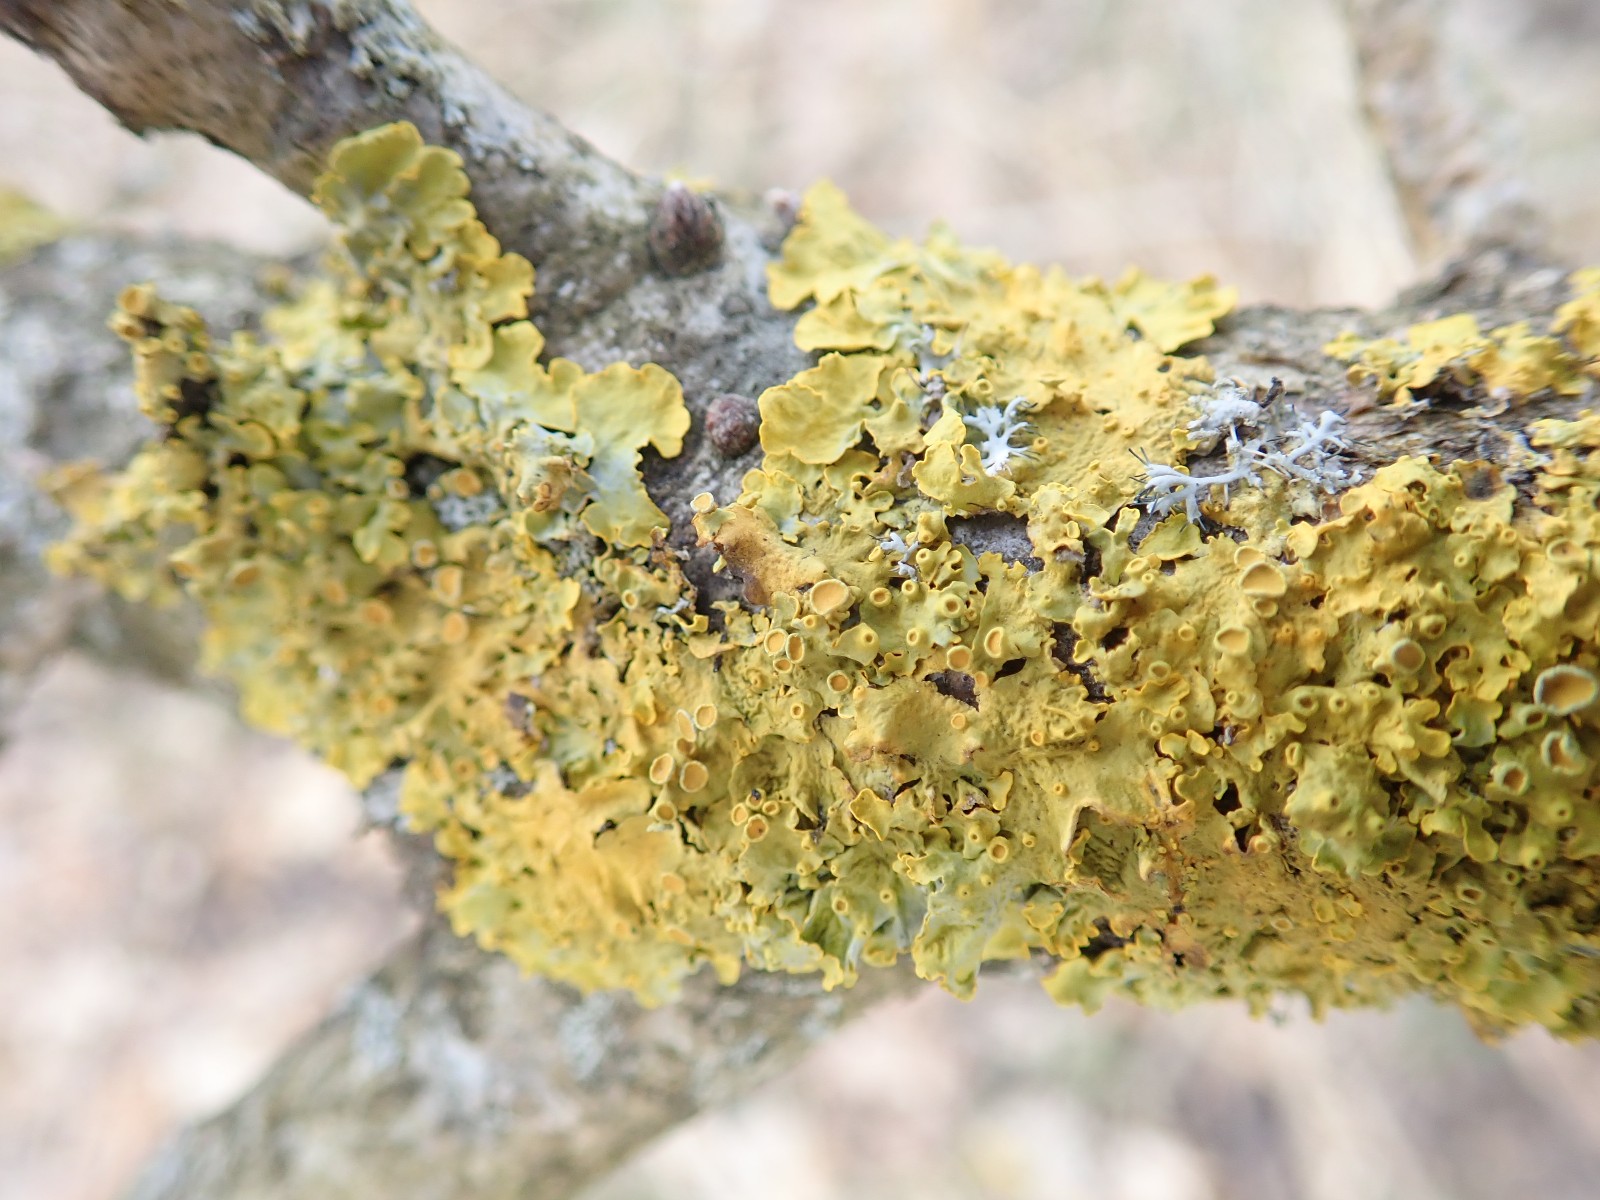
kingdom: Fungi
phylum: Ascomycota
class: Lecanoromycetes
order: Teloschistales
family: Teloschistaceae
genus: Xanthoria
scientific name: Xanthoria parietina
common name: almindelig væggelav
